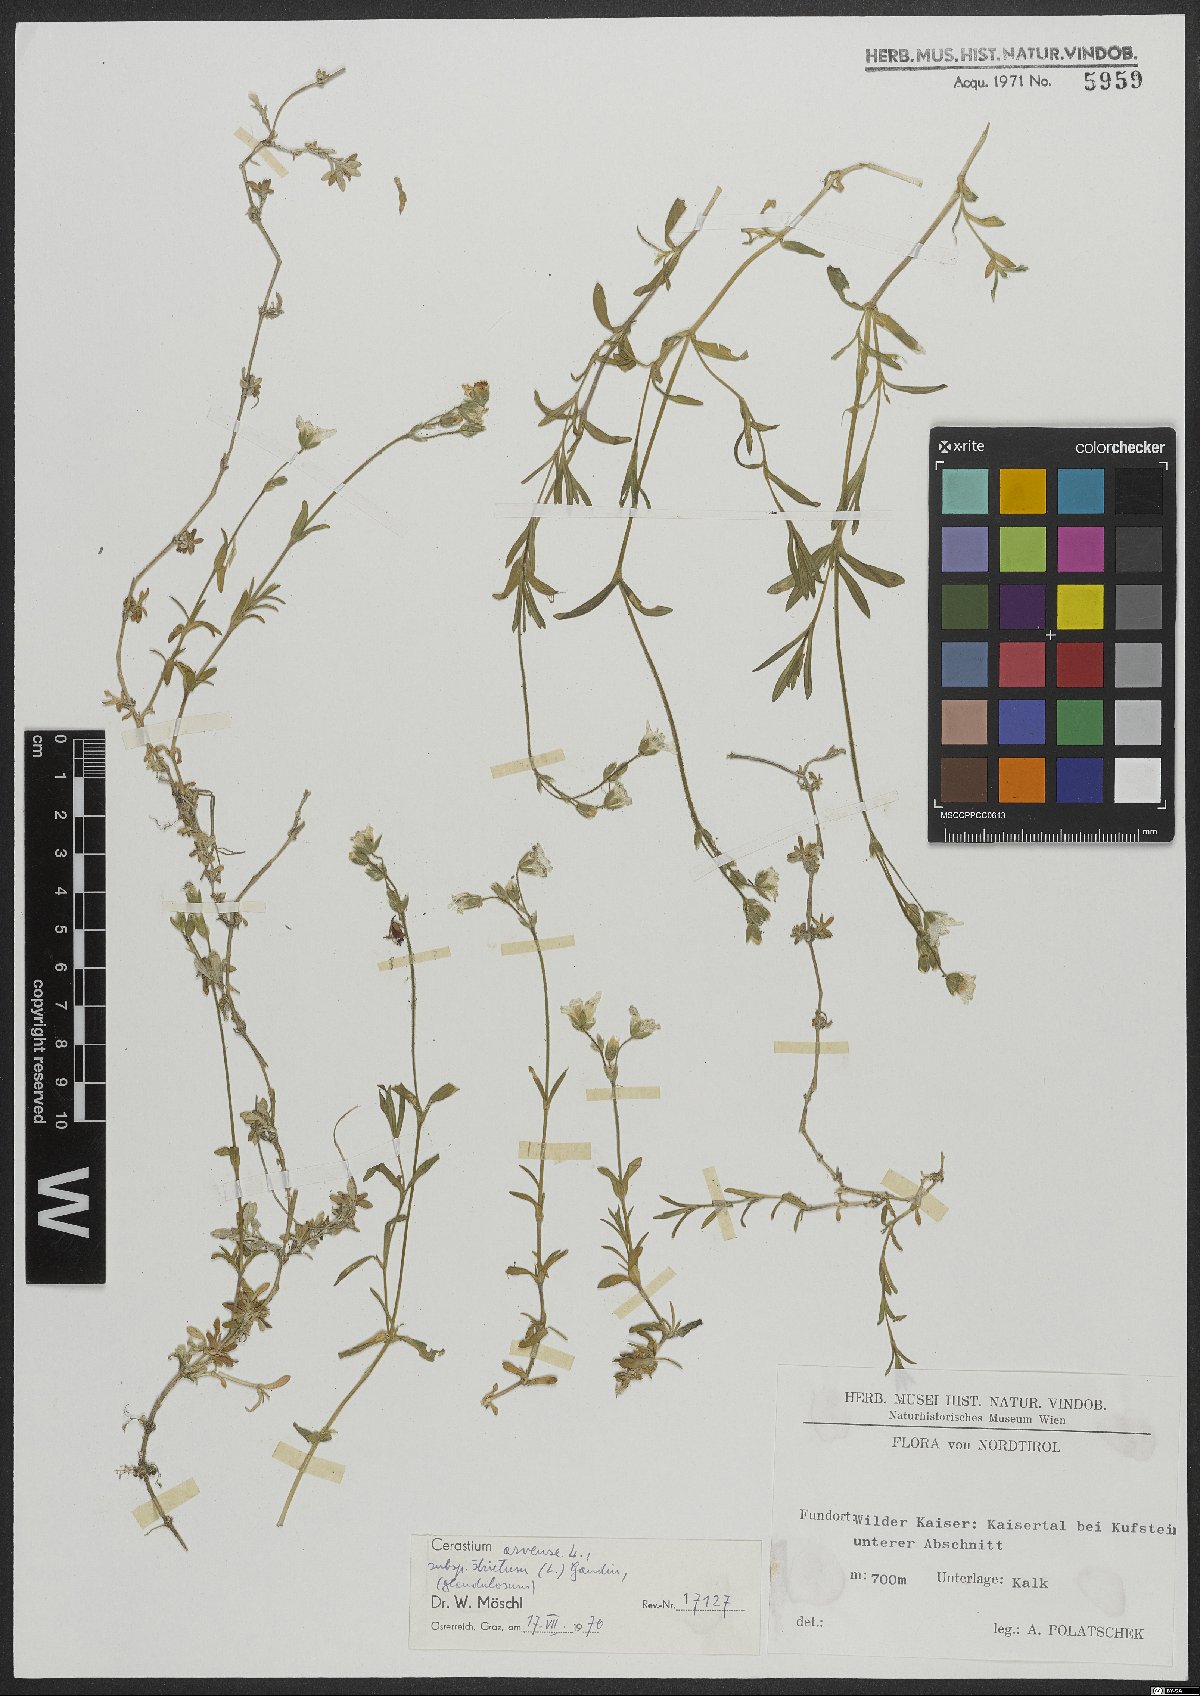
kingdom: Plantae
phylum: Tracheophyta
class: Magnoliopsida
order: Caryophyllales
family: Caryophyllaceae
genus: Cerastium
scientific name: Cerastium elongatum
